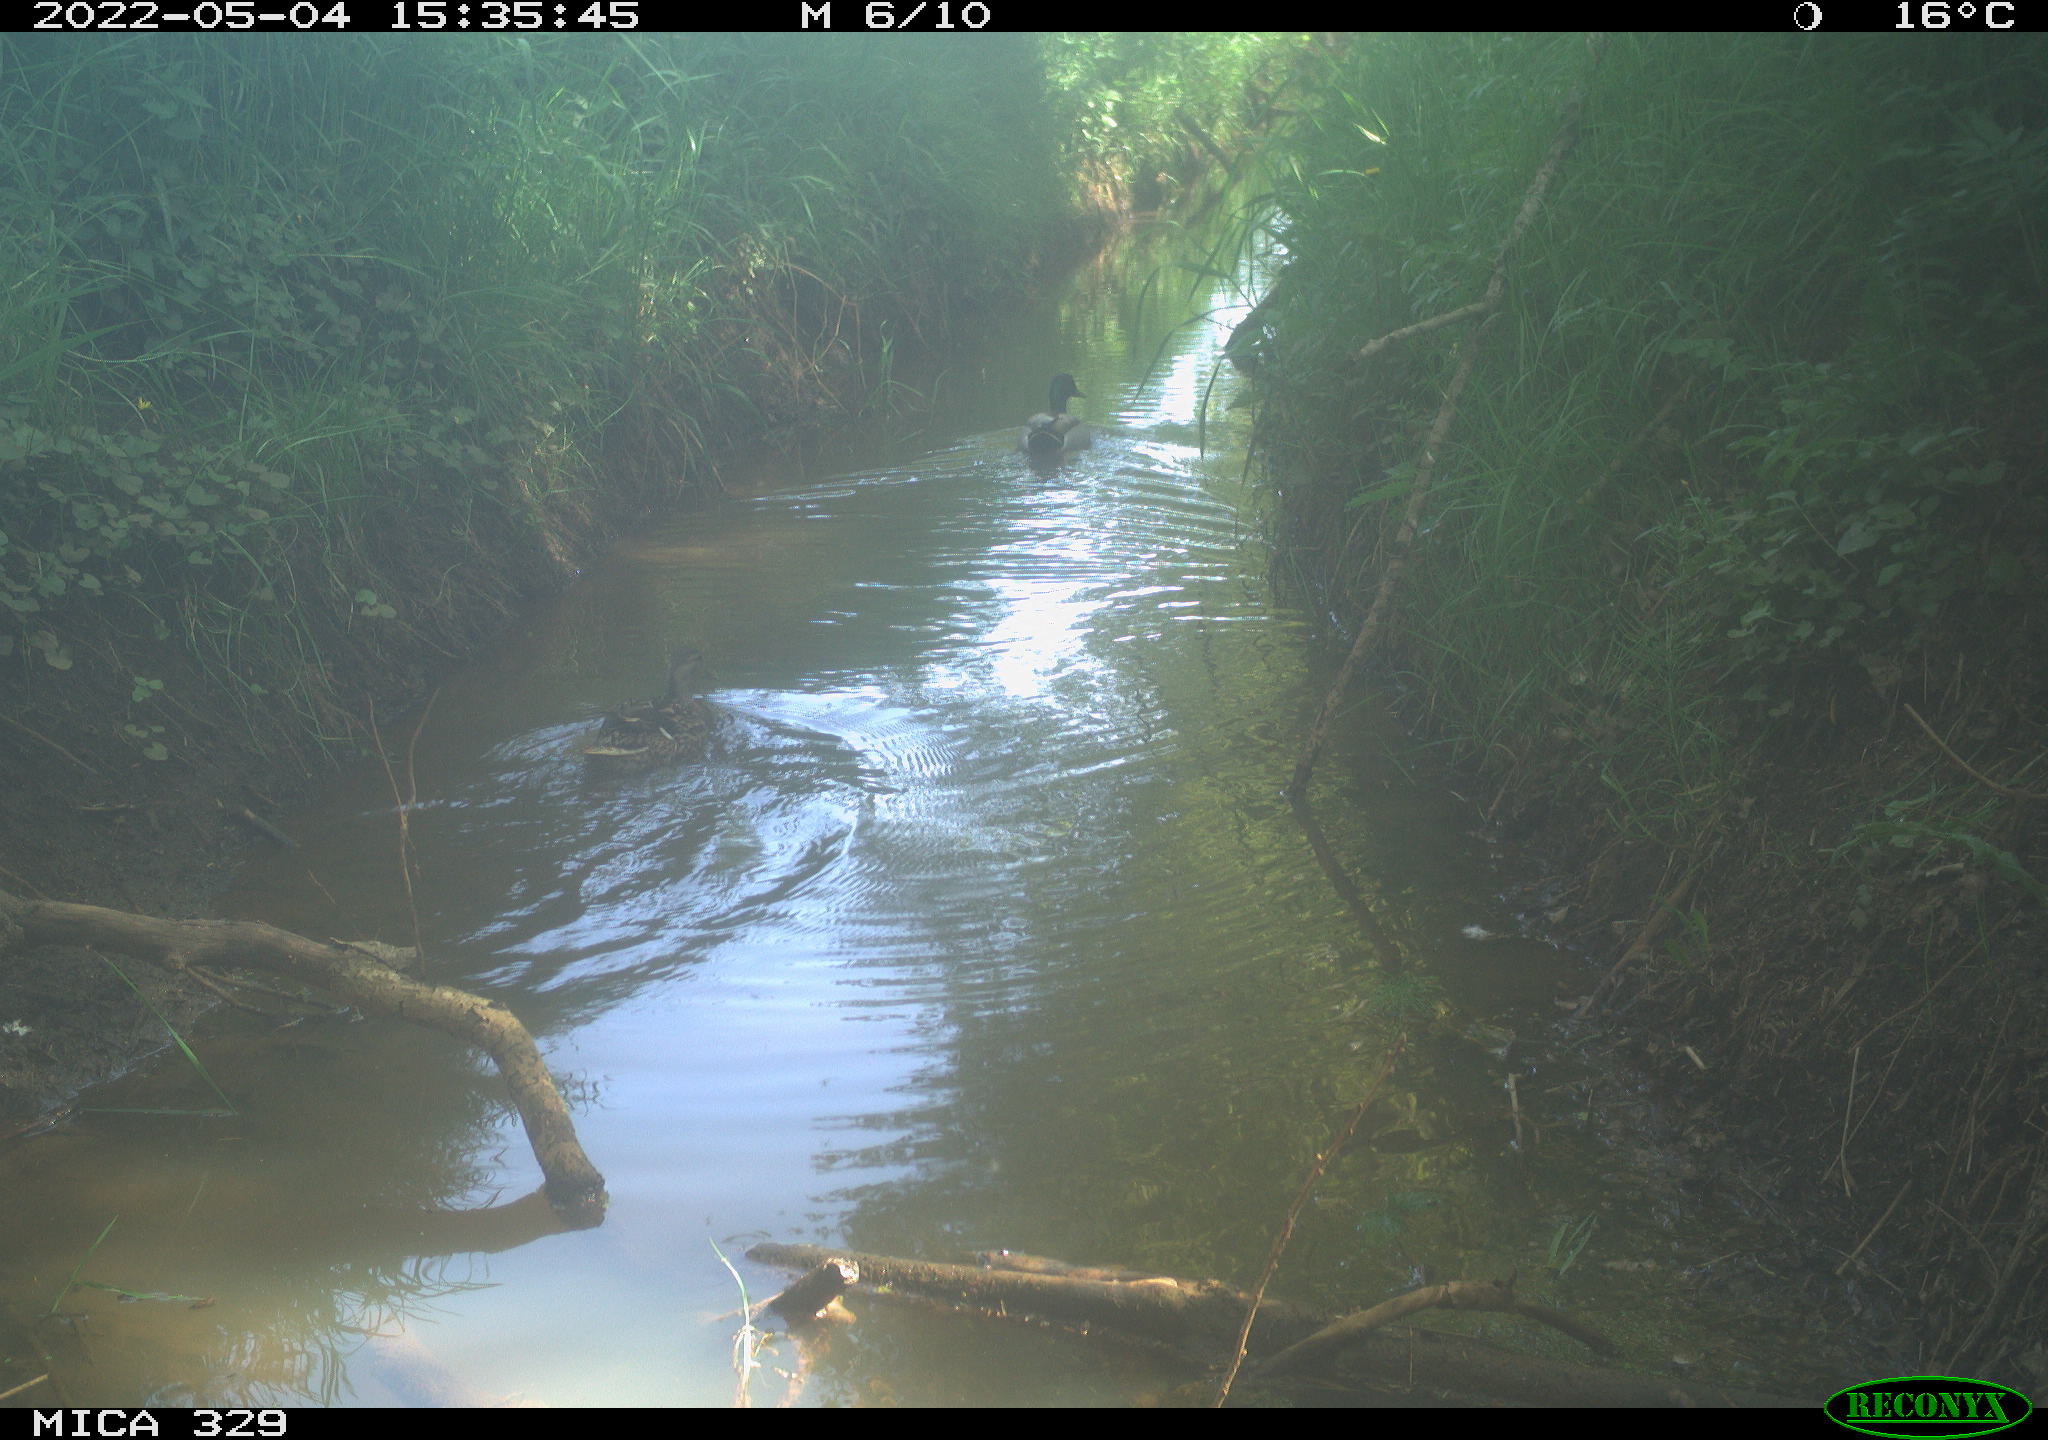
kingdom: Animalia
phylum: Chordata
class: Aves
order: Anseriformes
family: Anatidae
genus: Anas
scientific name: Anas platyrhynchos
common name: Mallard
